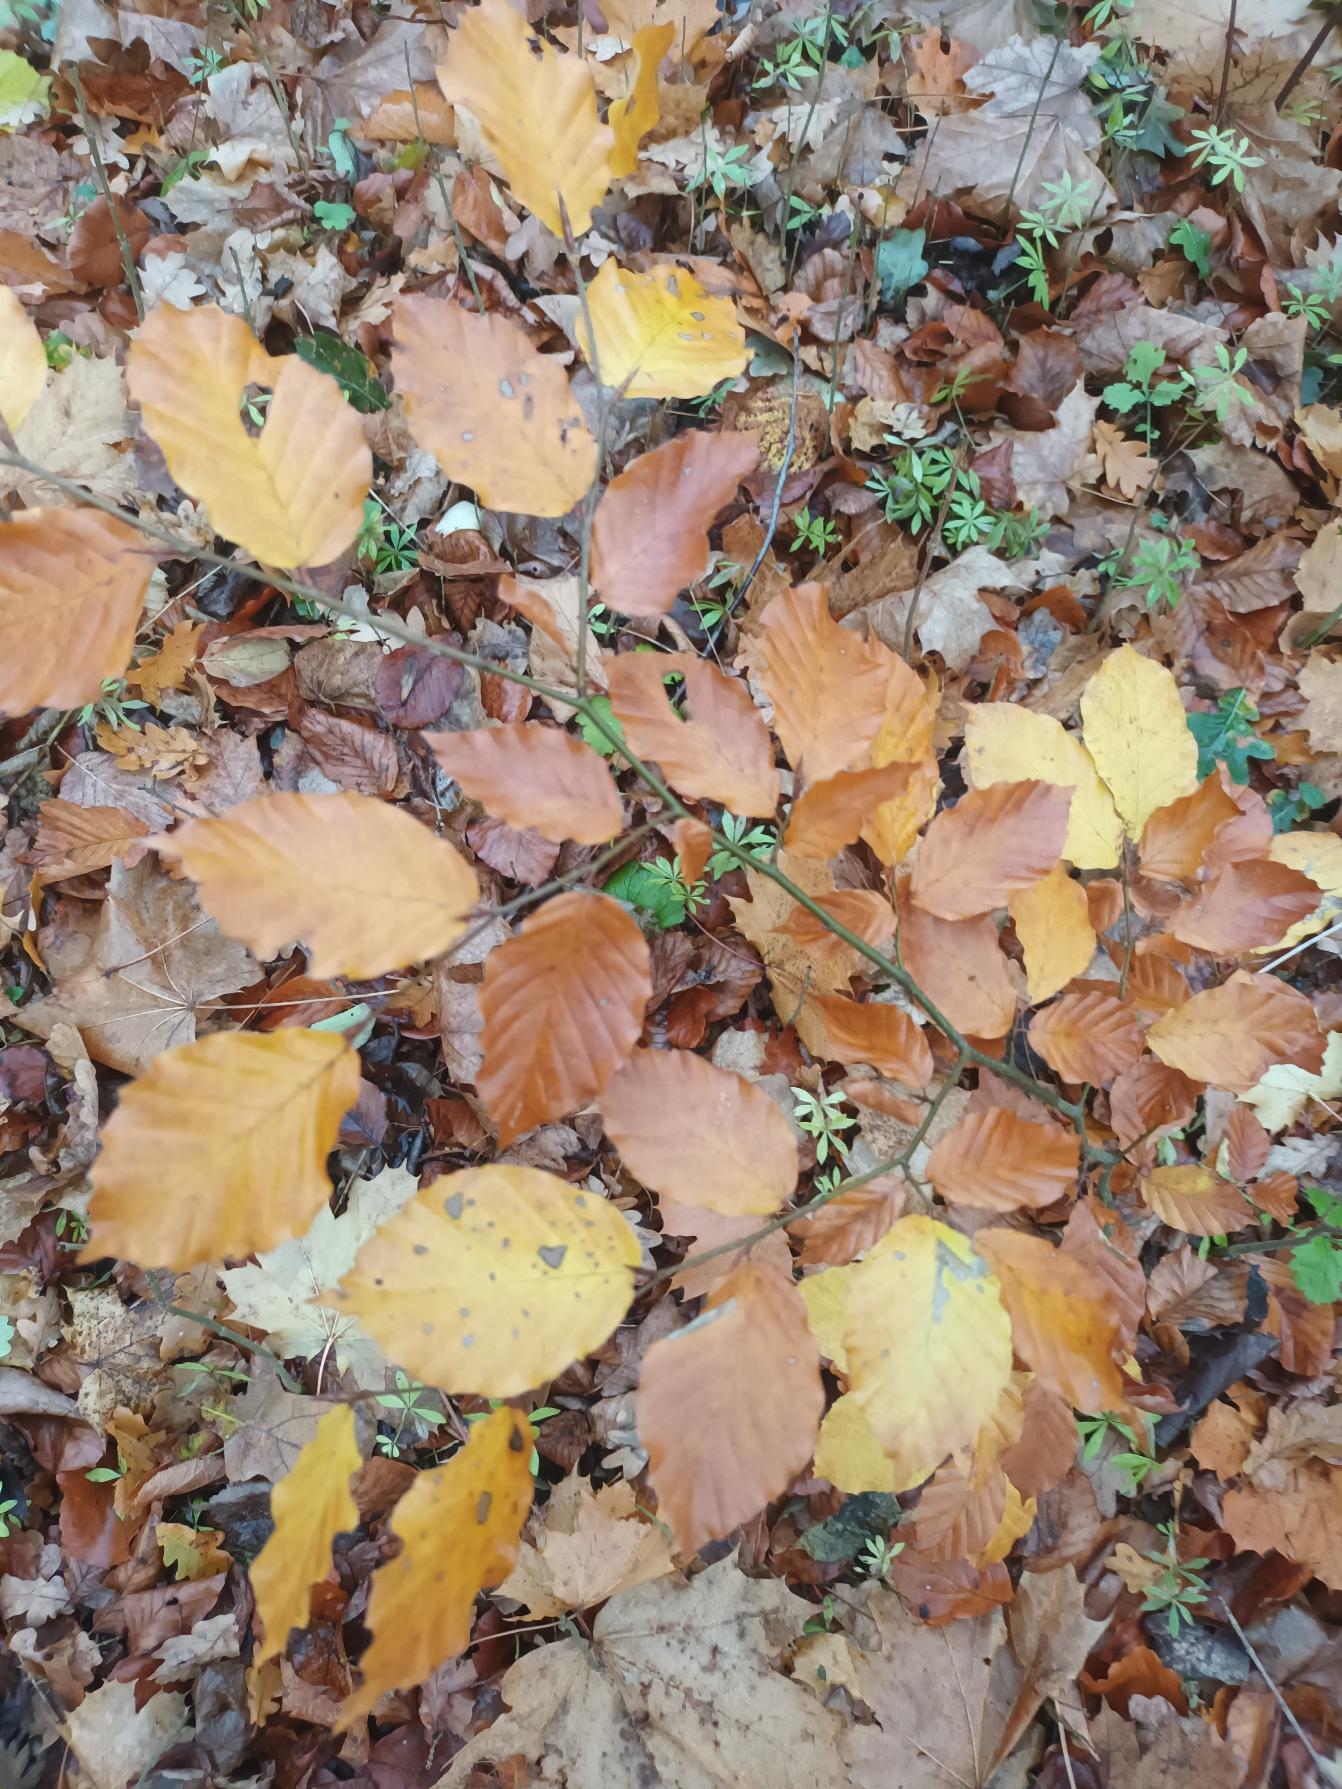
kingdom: Plantae
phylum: Tracheophyta
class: Magnoliopsida
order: Fagales
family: Fagaceae
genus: Fagus
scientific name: Fagus sylvatica
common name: Bøg
